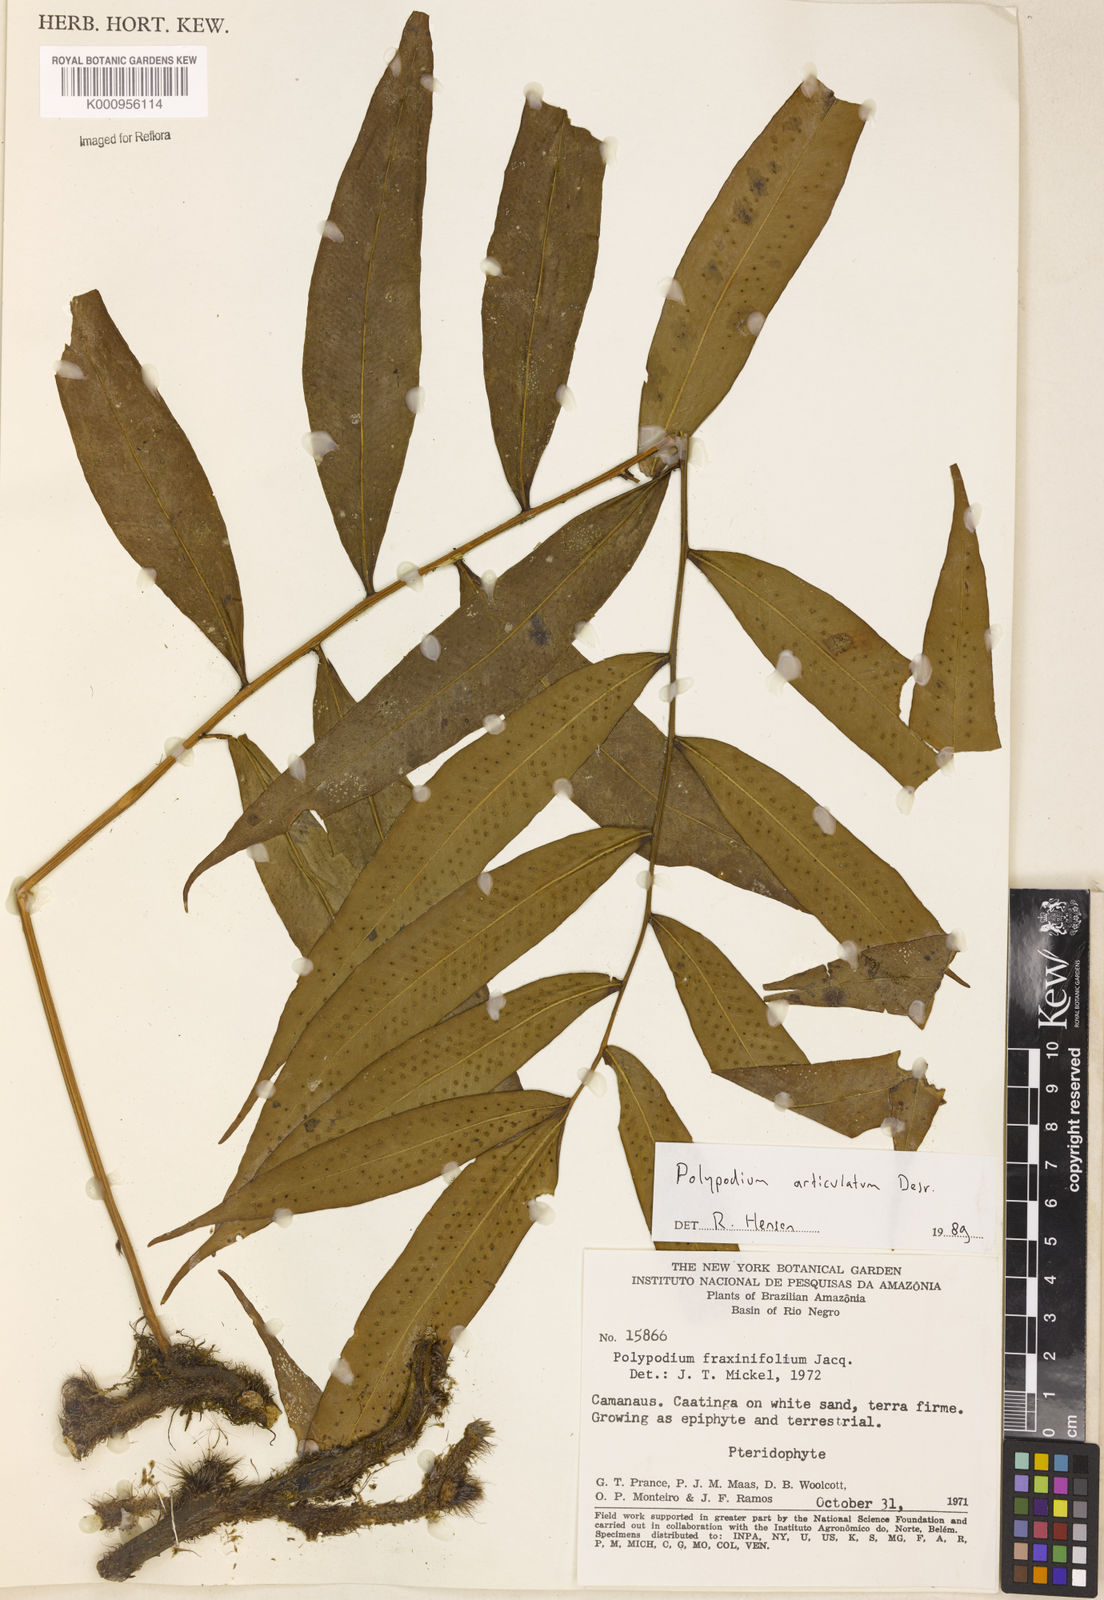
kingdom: Plantae
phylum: Tracheophyta
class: Polypodiopsida
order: Polypodiales
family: Polypodiaceae
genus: Polypodium
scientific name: Polypodium
